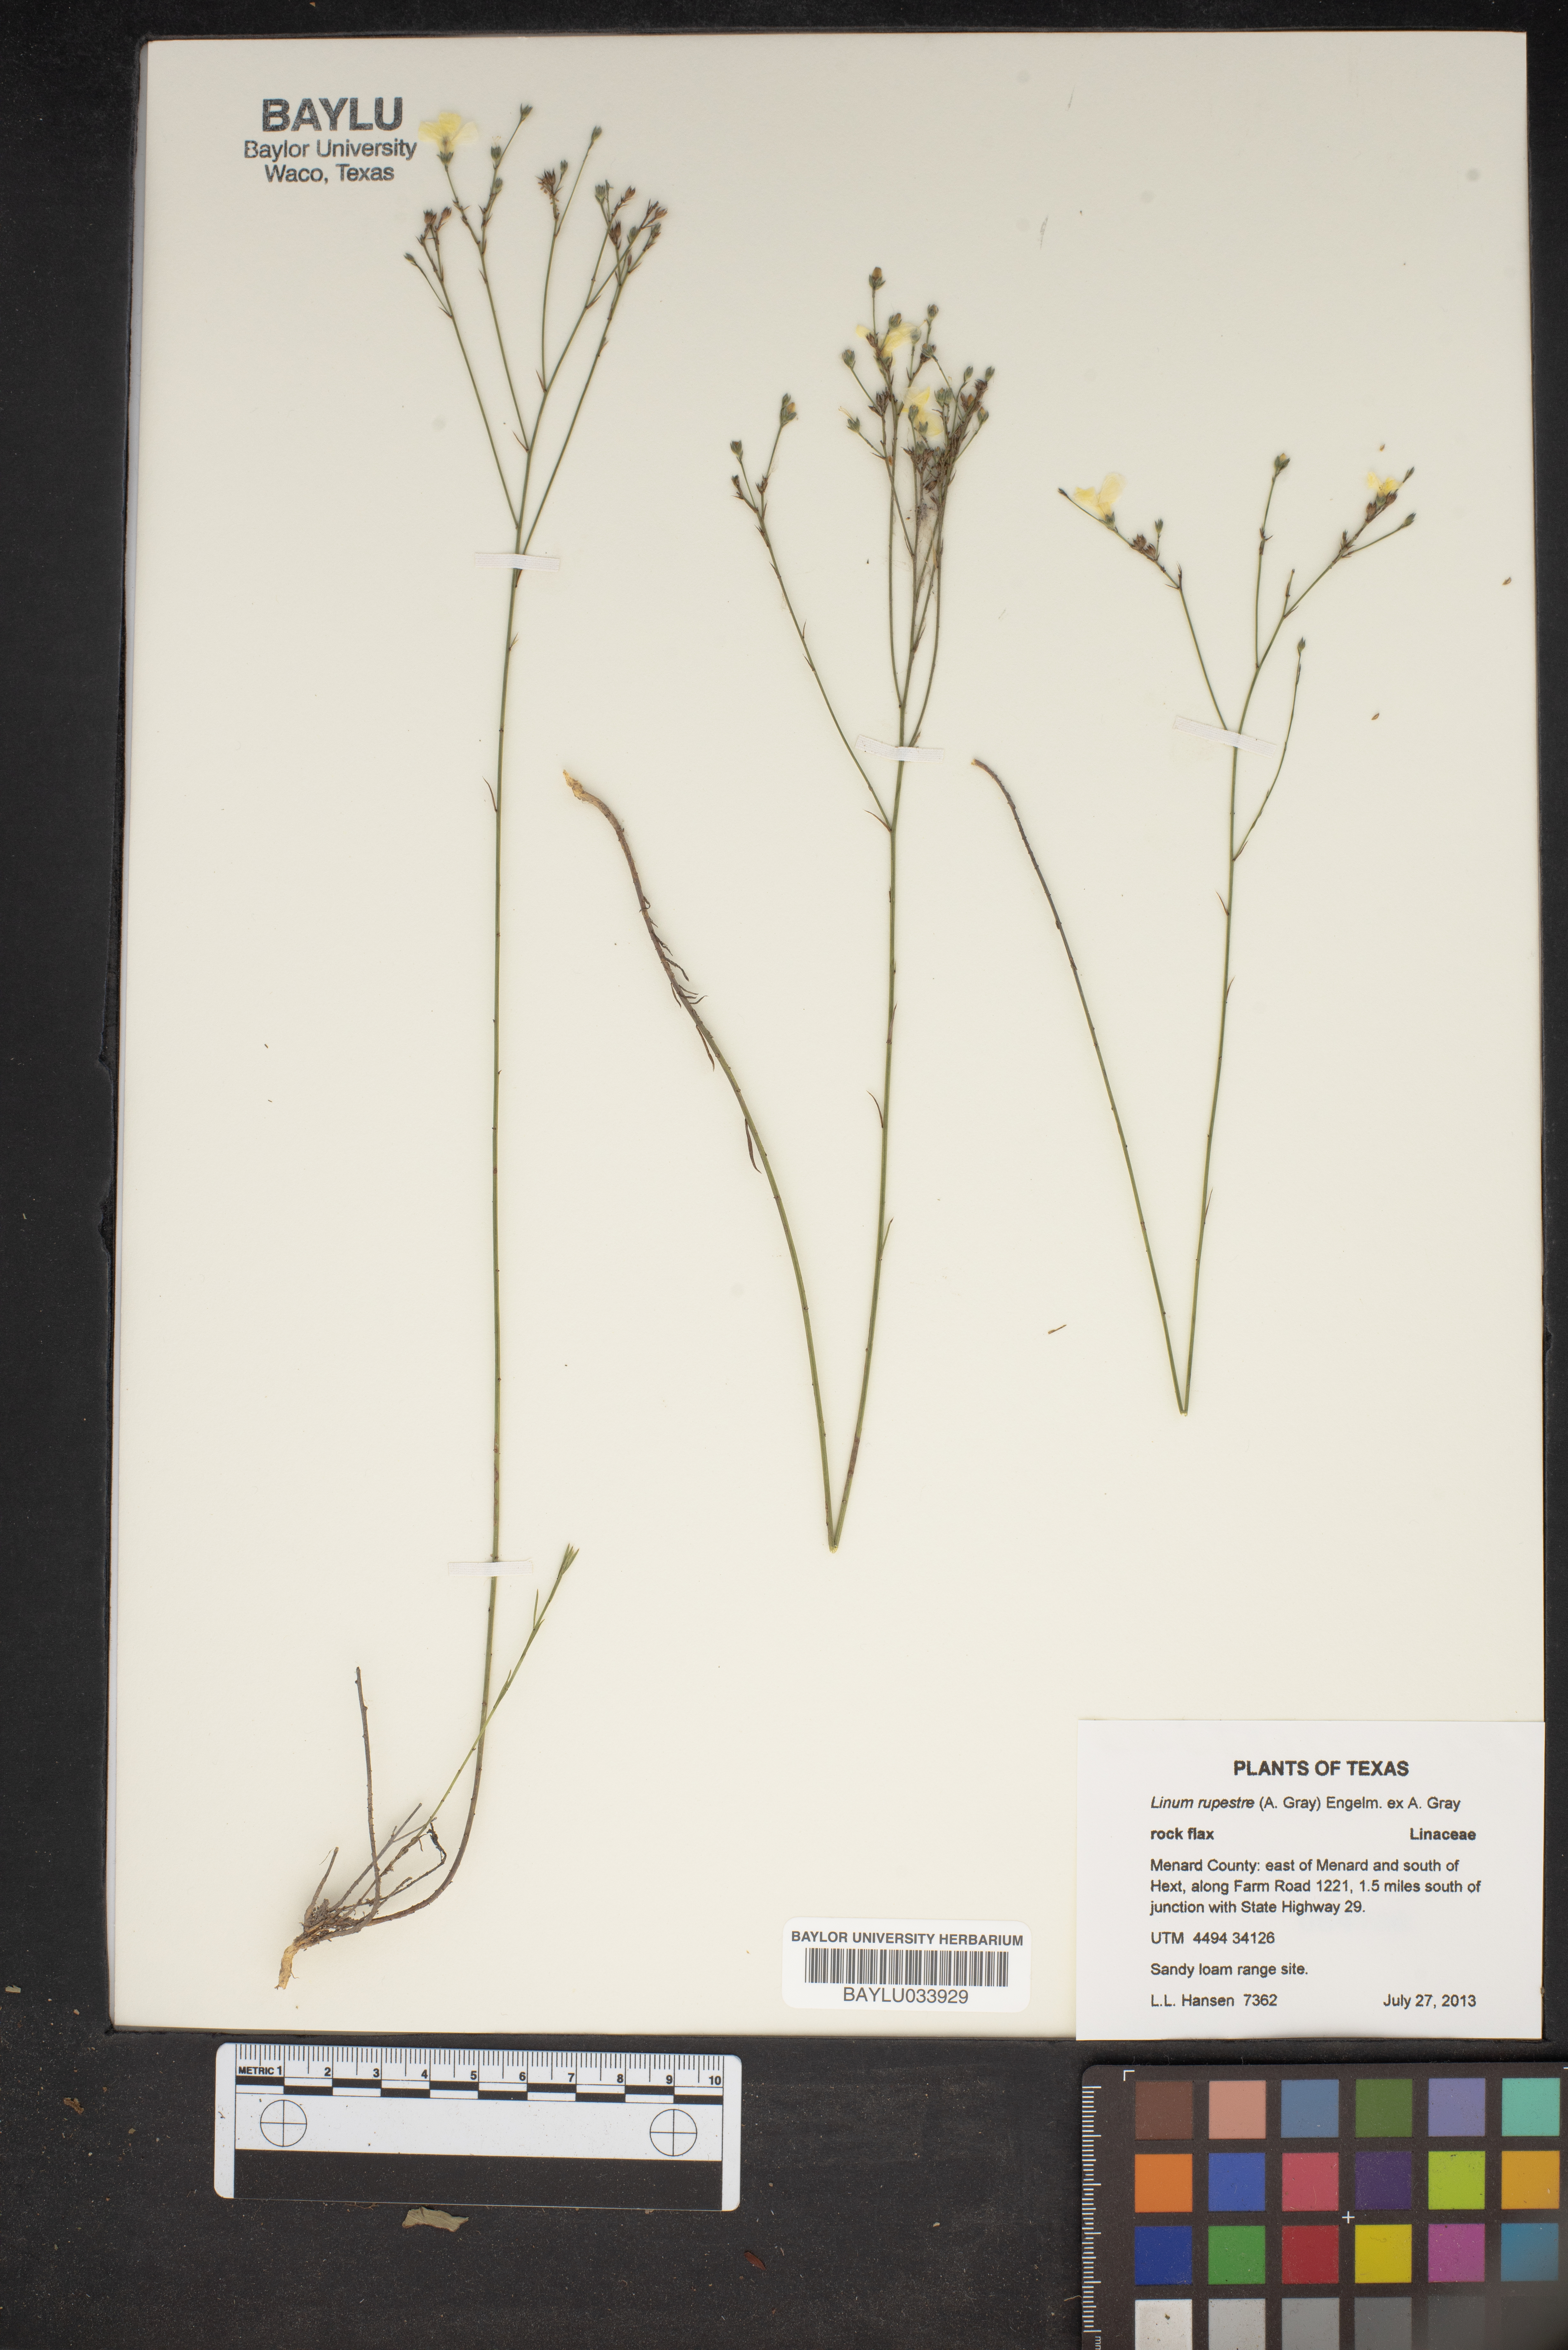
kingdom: Plantae
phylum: Tracheophyta
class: Magnoliopsida
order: Malpighiales
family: Linaceae
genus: Linum
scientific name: Linum rupestre
